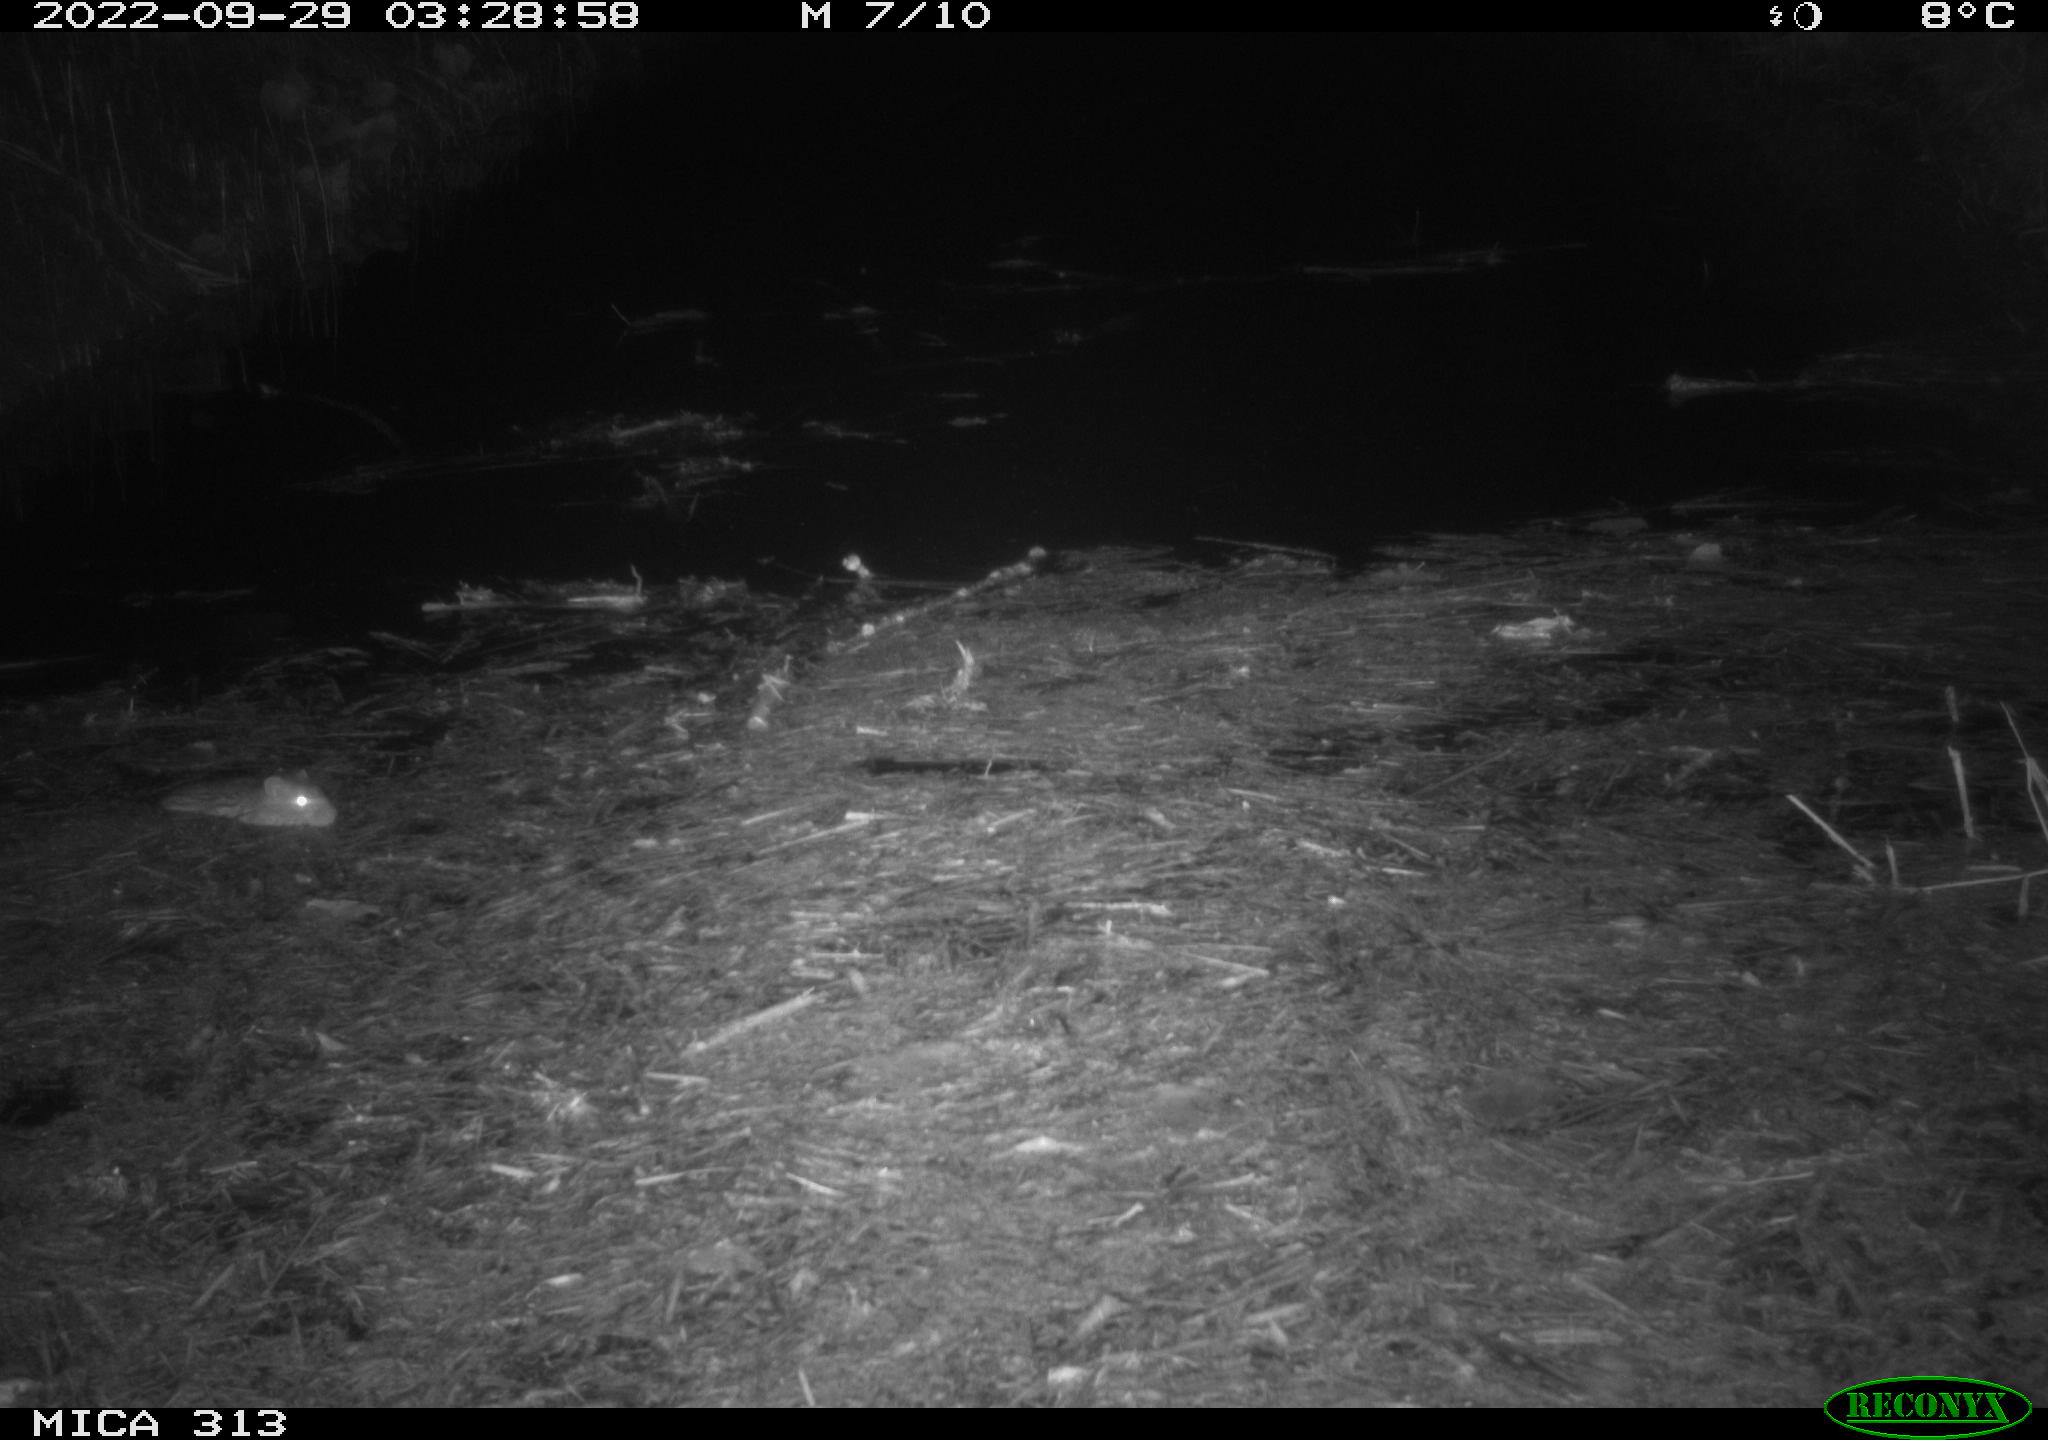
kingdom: Animalia
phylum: Chordata
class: Mammalia
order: Rodentia
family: Muridae
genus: Rattus
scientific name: Rattus norvegicus
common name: Brown rat
